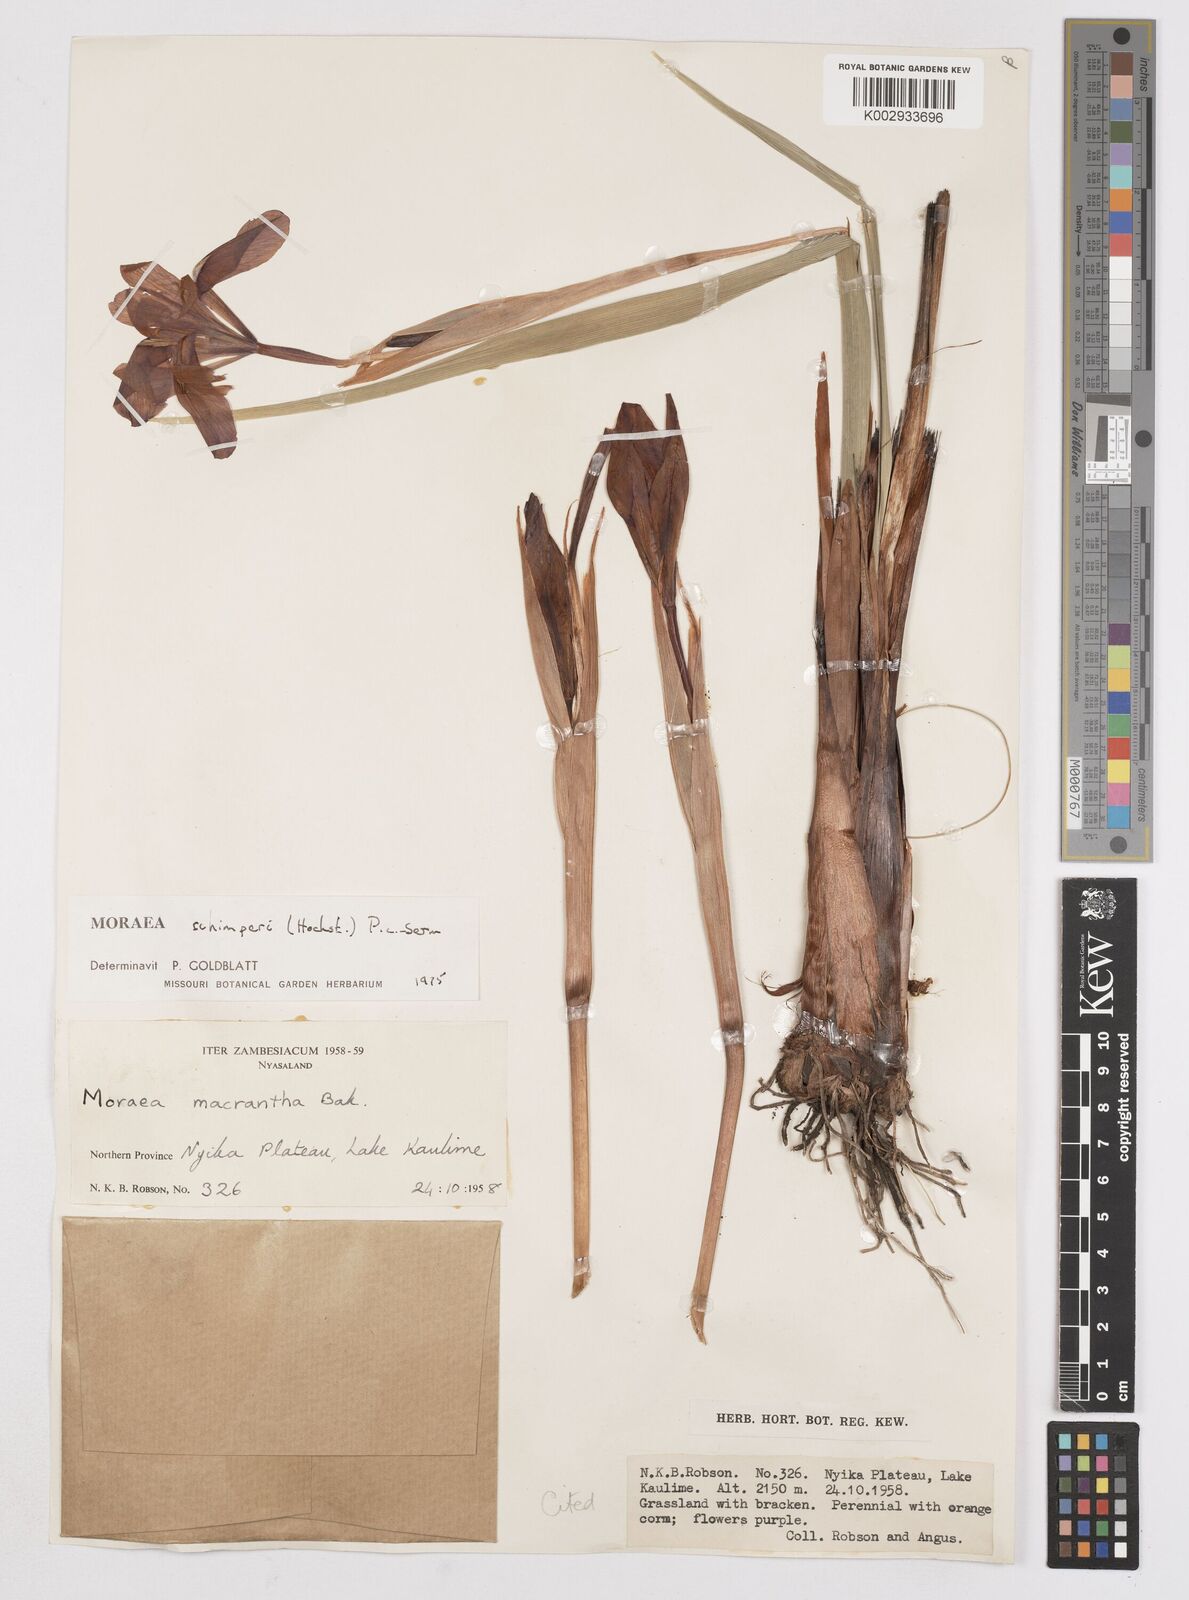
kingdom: Plantae
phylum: Tracheophyta
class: Liliopsida
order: Asparagales
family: Iridaceae
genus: Moraea
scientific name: Moraea schimperi
